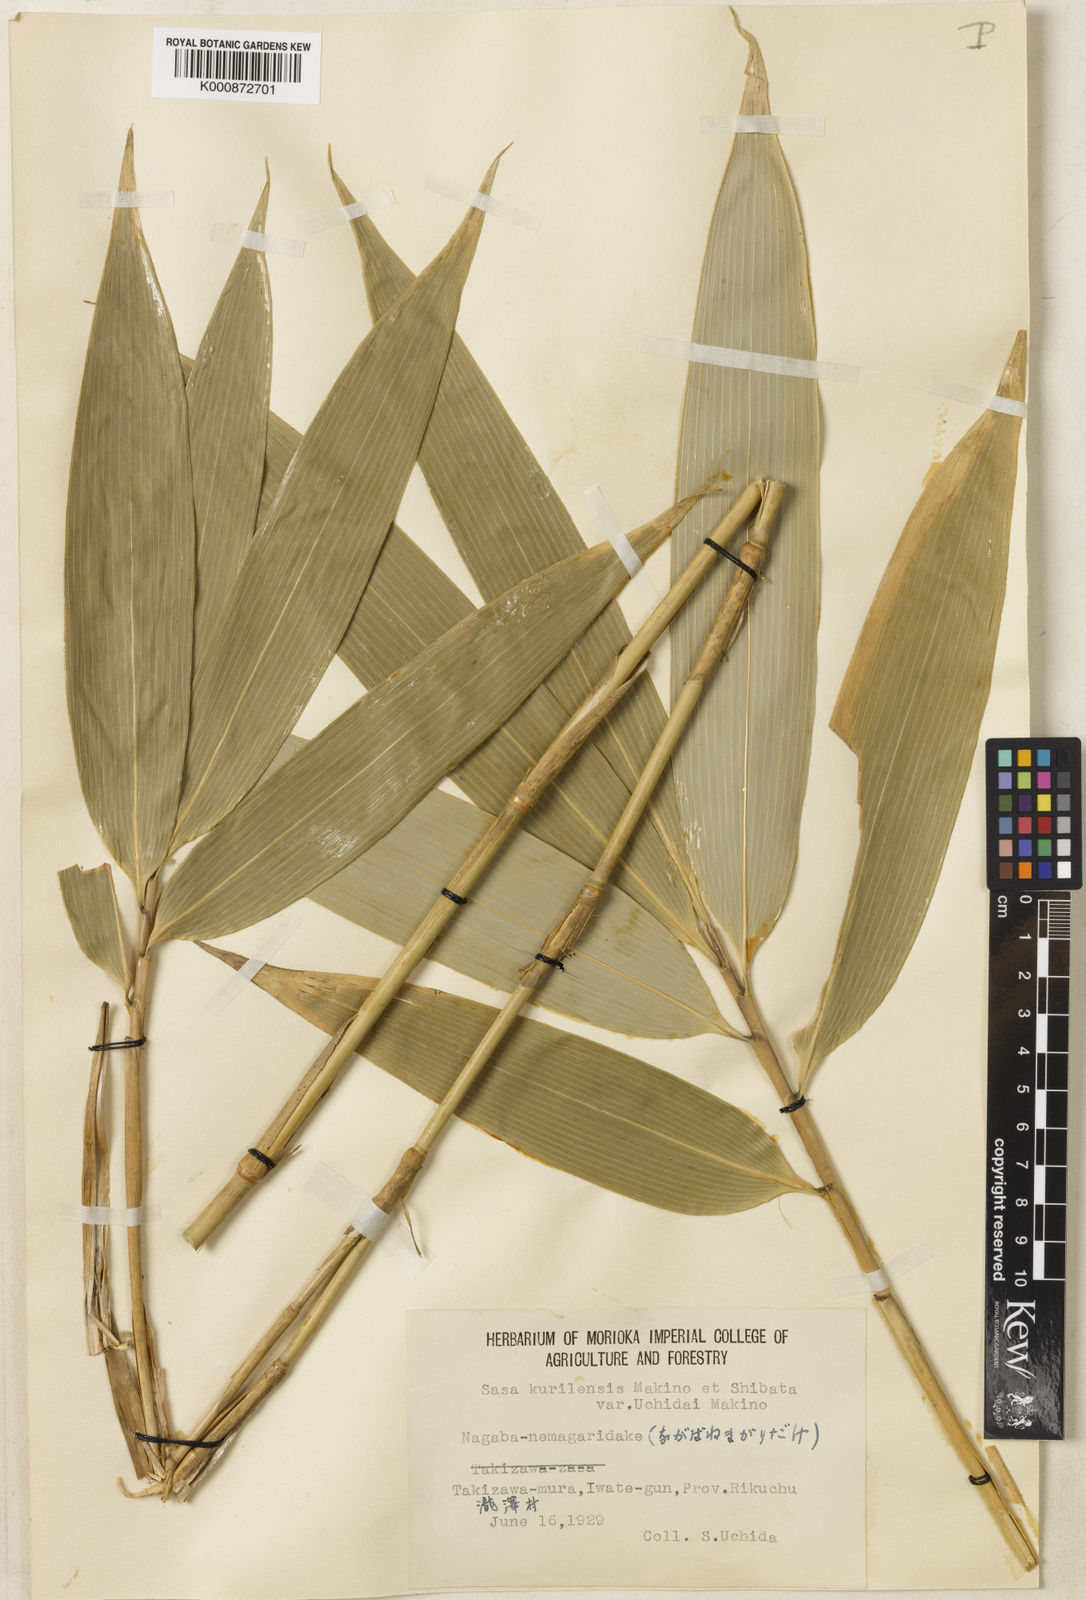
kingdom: Plantae
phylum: Tracheophyta
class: Liliopsida
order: Poales
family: Poaceae
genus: Sasa
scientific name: Sasa kurilensis
